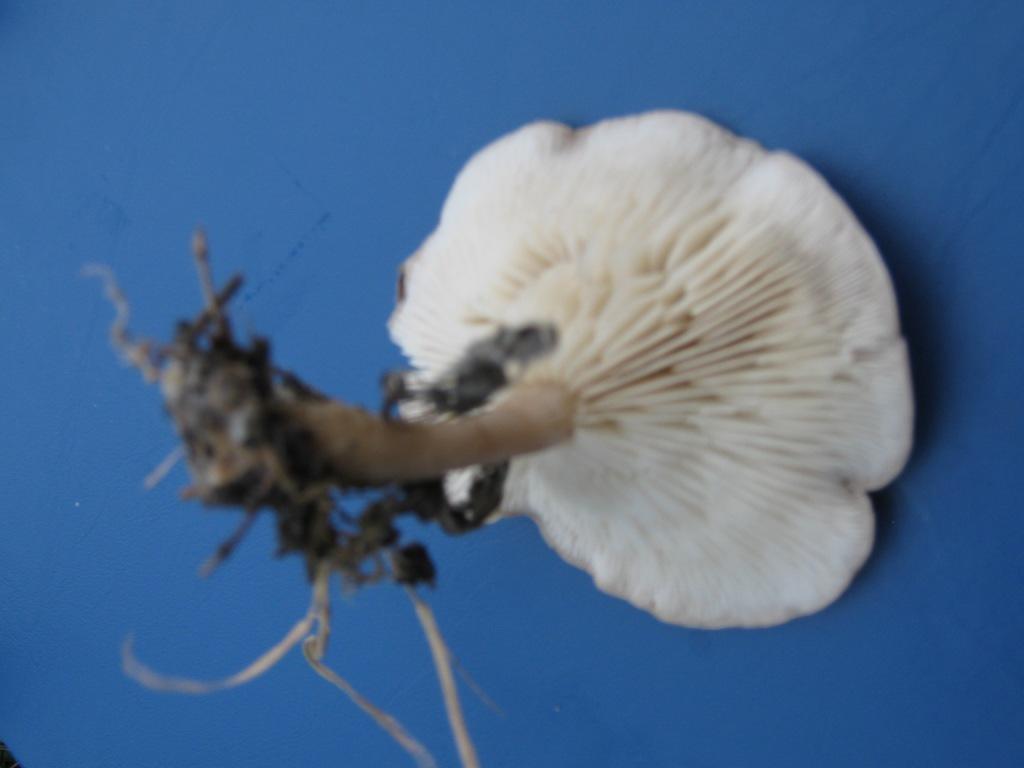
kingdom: Fungi
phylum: Basidiomycota
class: Agaricomycetes
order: Agaricales
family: Tricholomataceae
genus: Clitocybe
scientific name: Clitocybe rivulosa
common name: eng-tragthat
